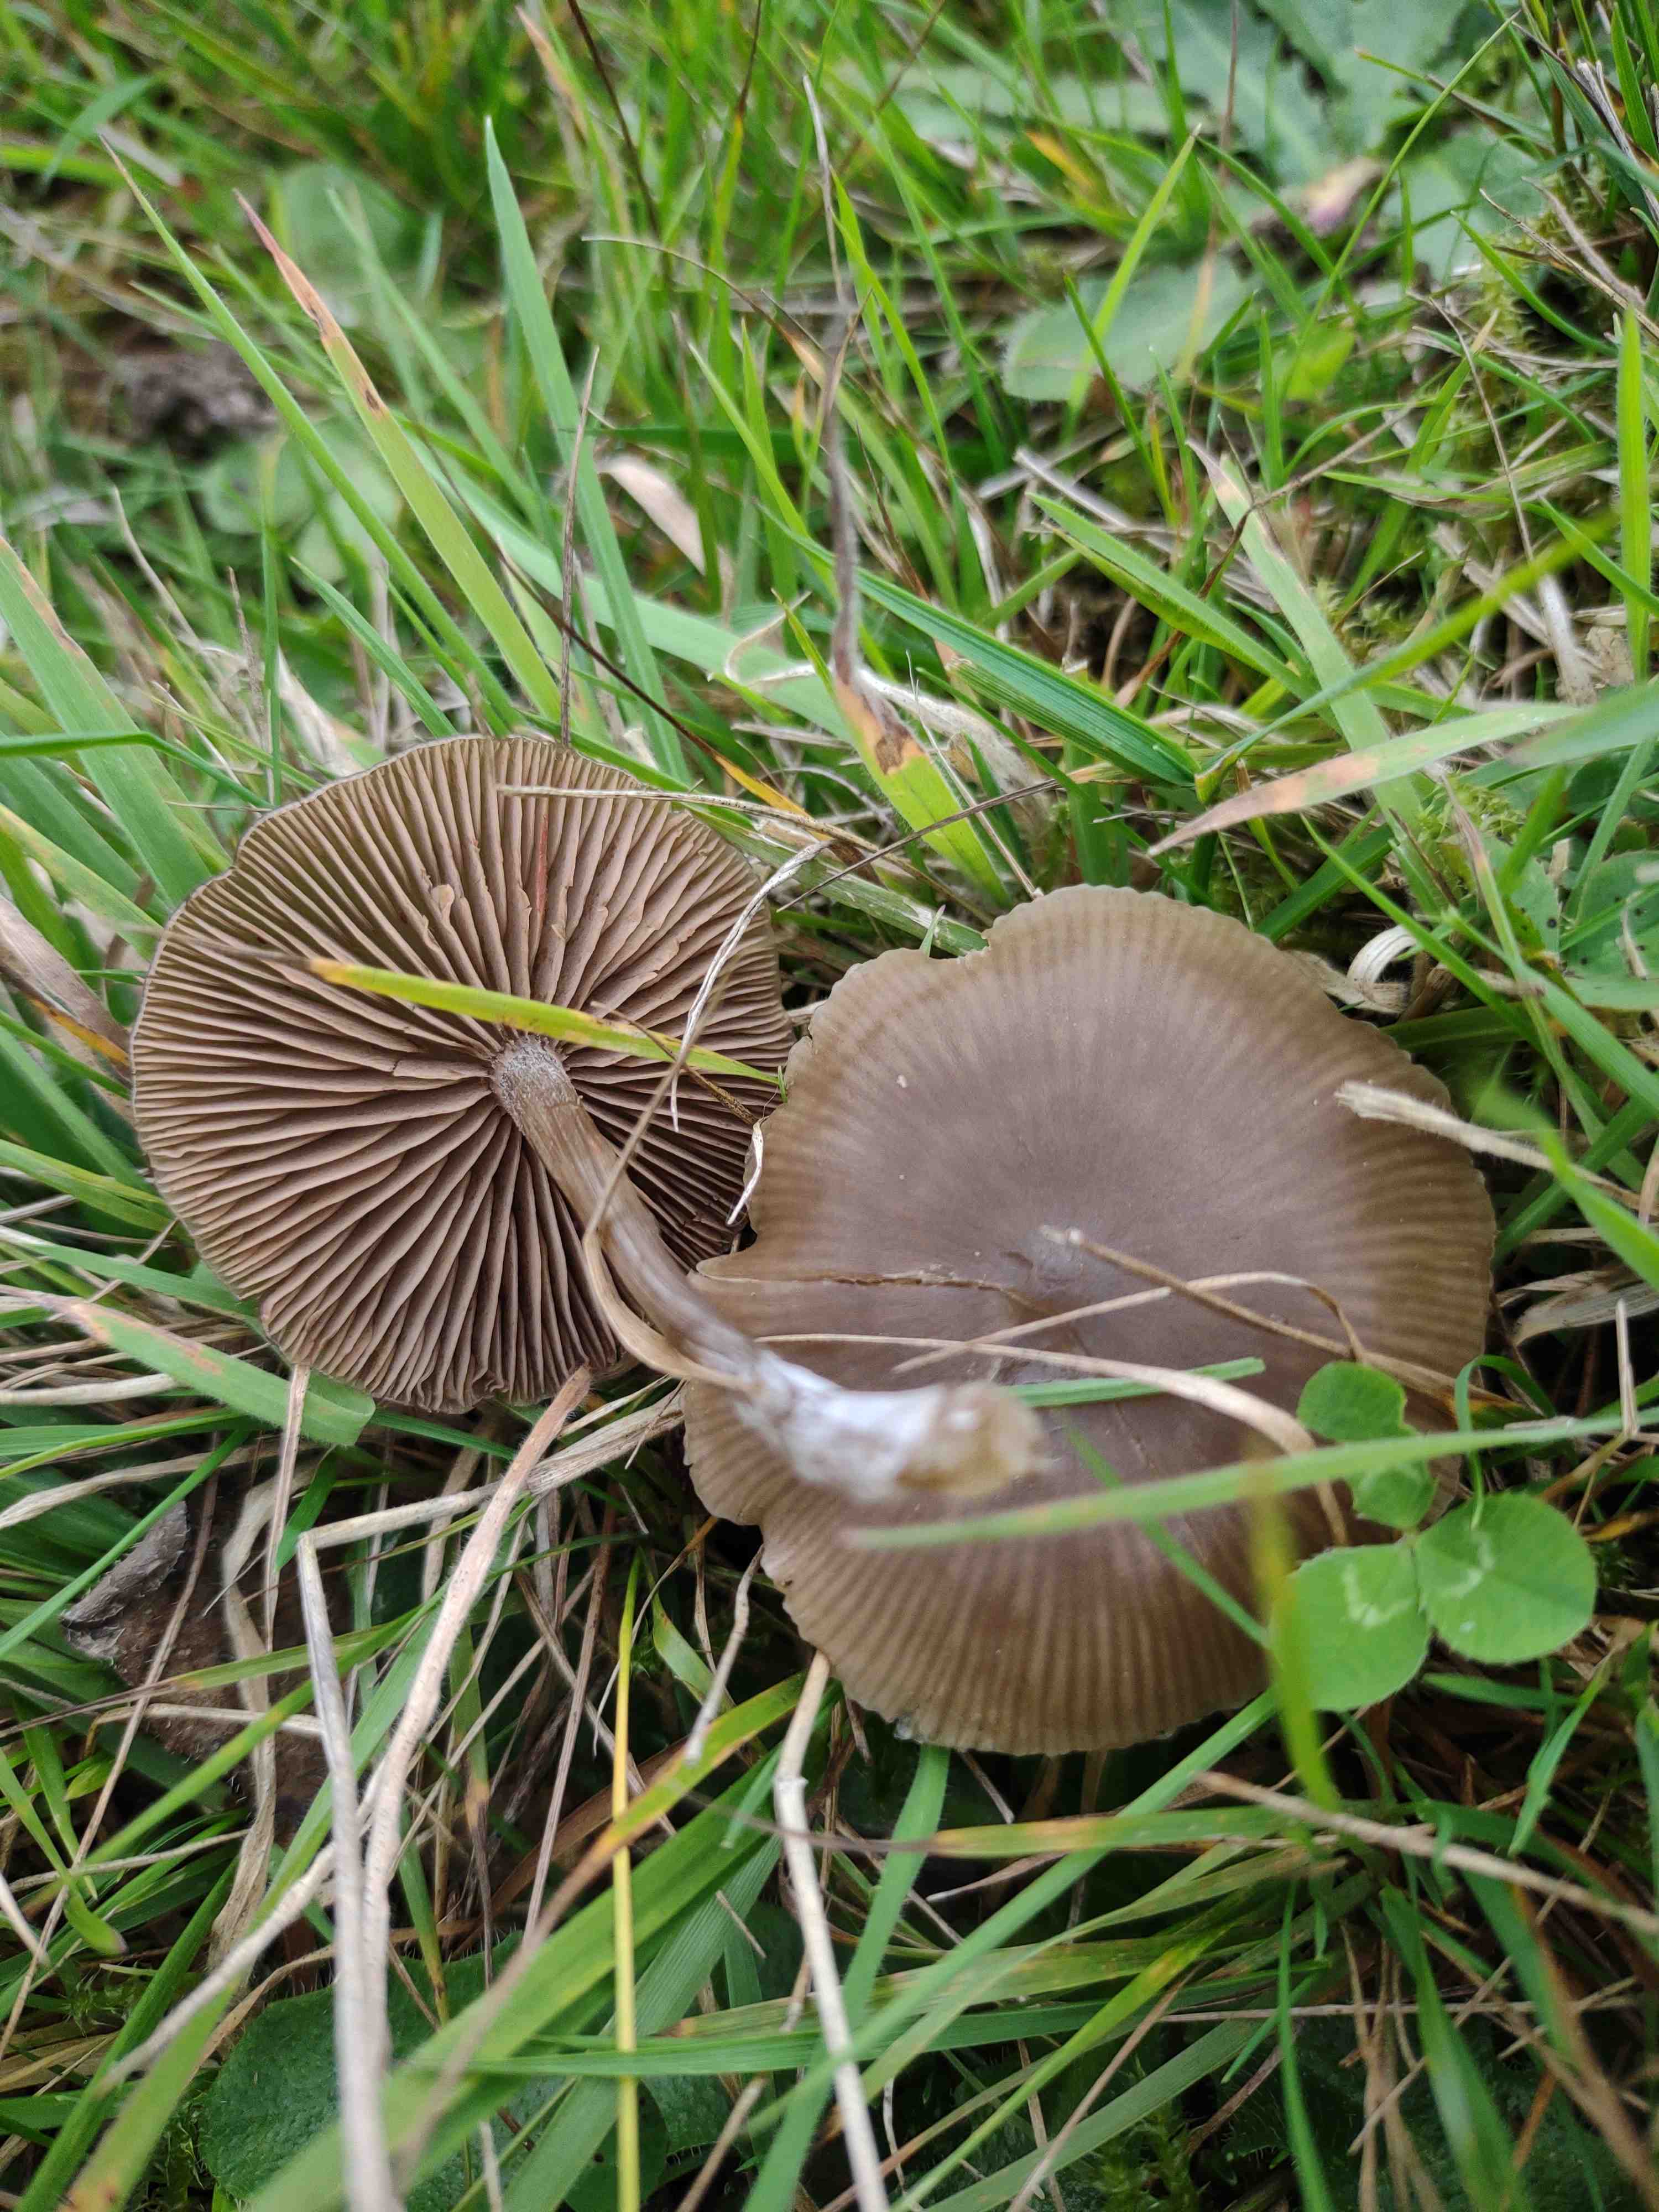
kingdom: Fungi
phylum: Basidiomycota
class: Agaricomycetes
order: Agaricales
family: Entolomataceae
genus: Entoloma
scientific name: Entoloma
